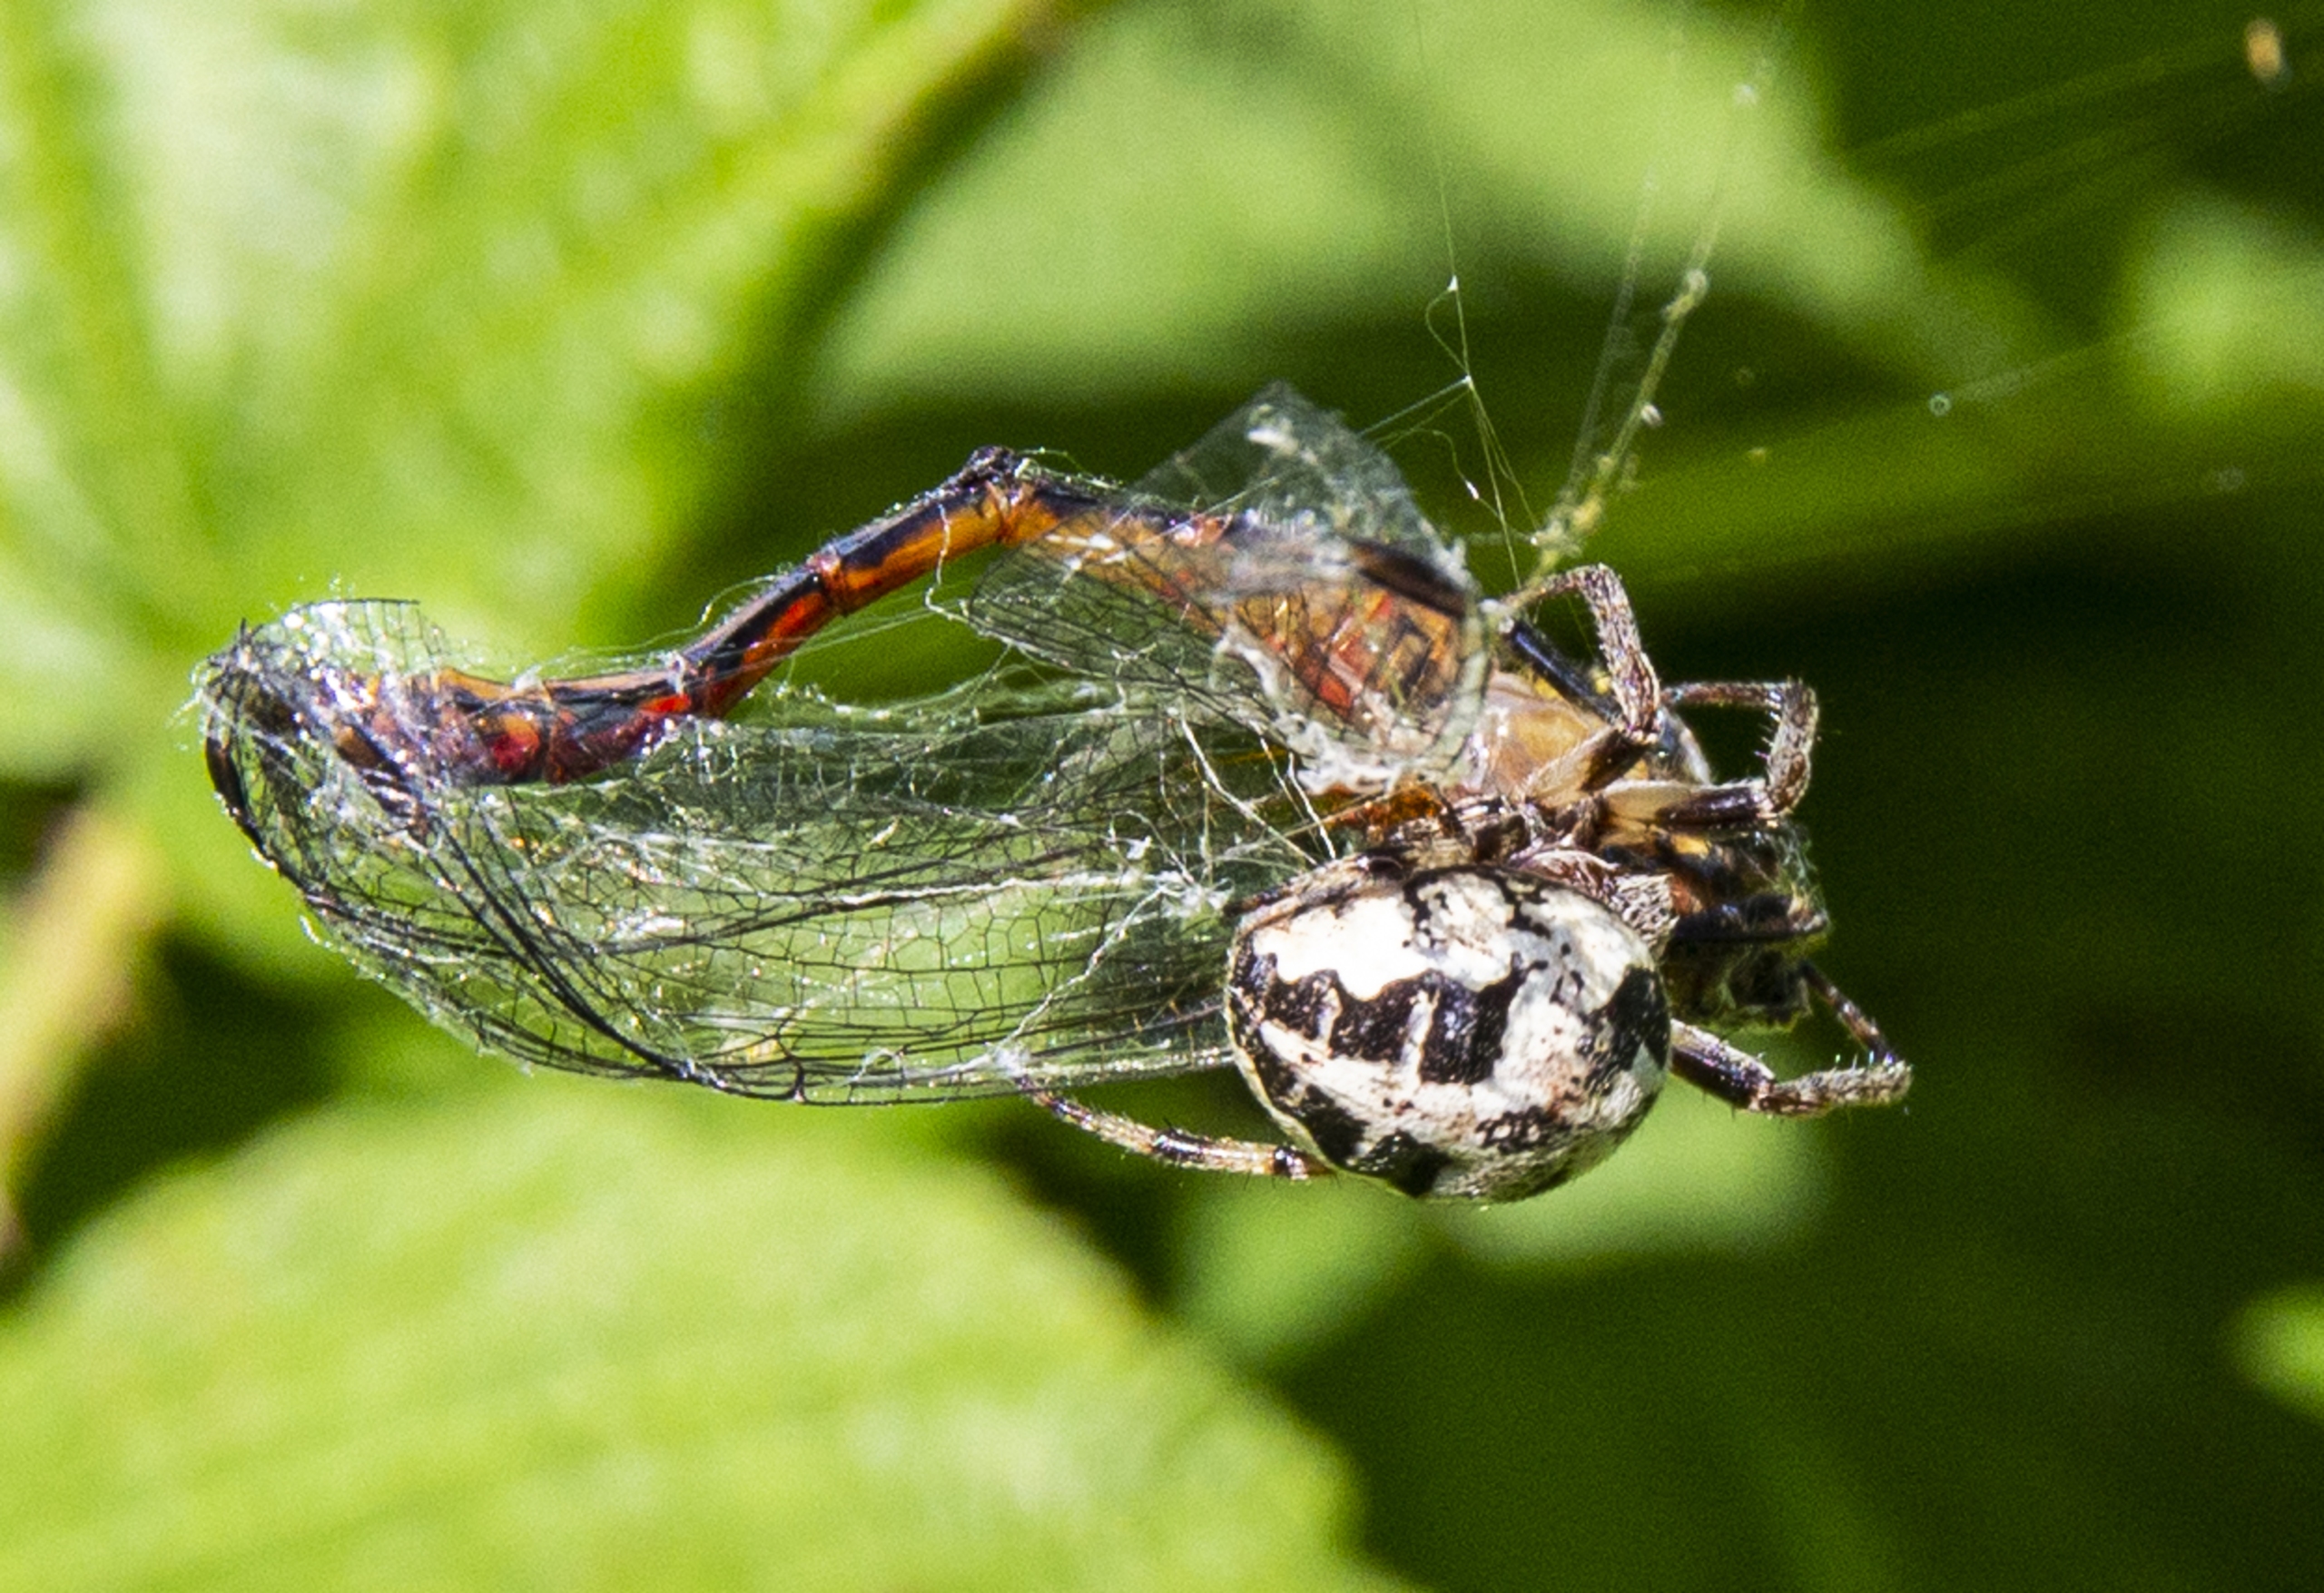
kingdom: Animalia
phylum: Arthropoda
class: Arachnida
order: Araneae
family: Araneidae
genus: Larinioides
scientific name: Larinioides cornutus
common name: Sivhjulspinder
